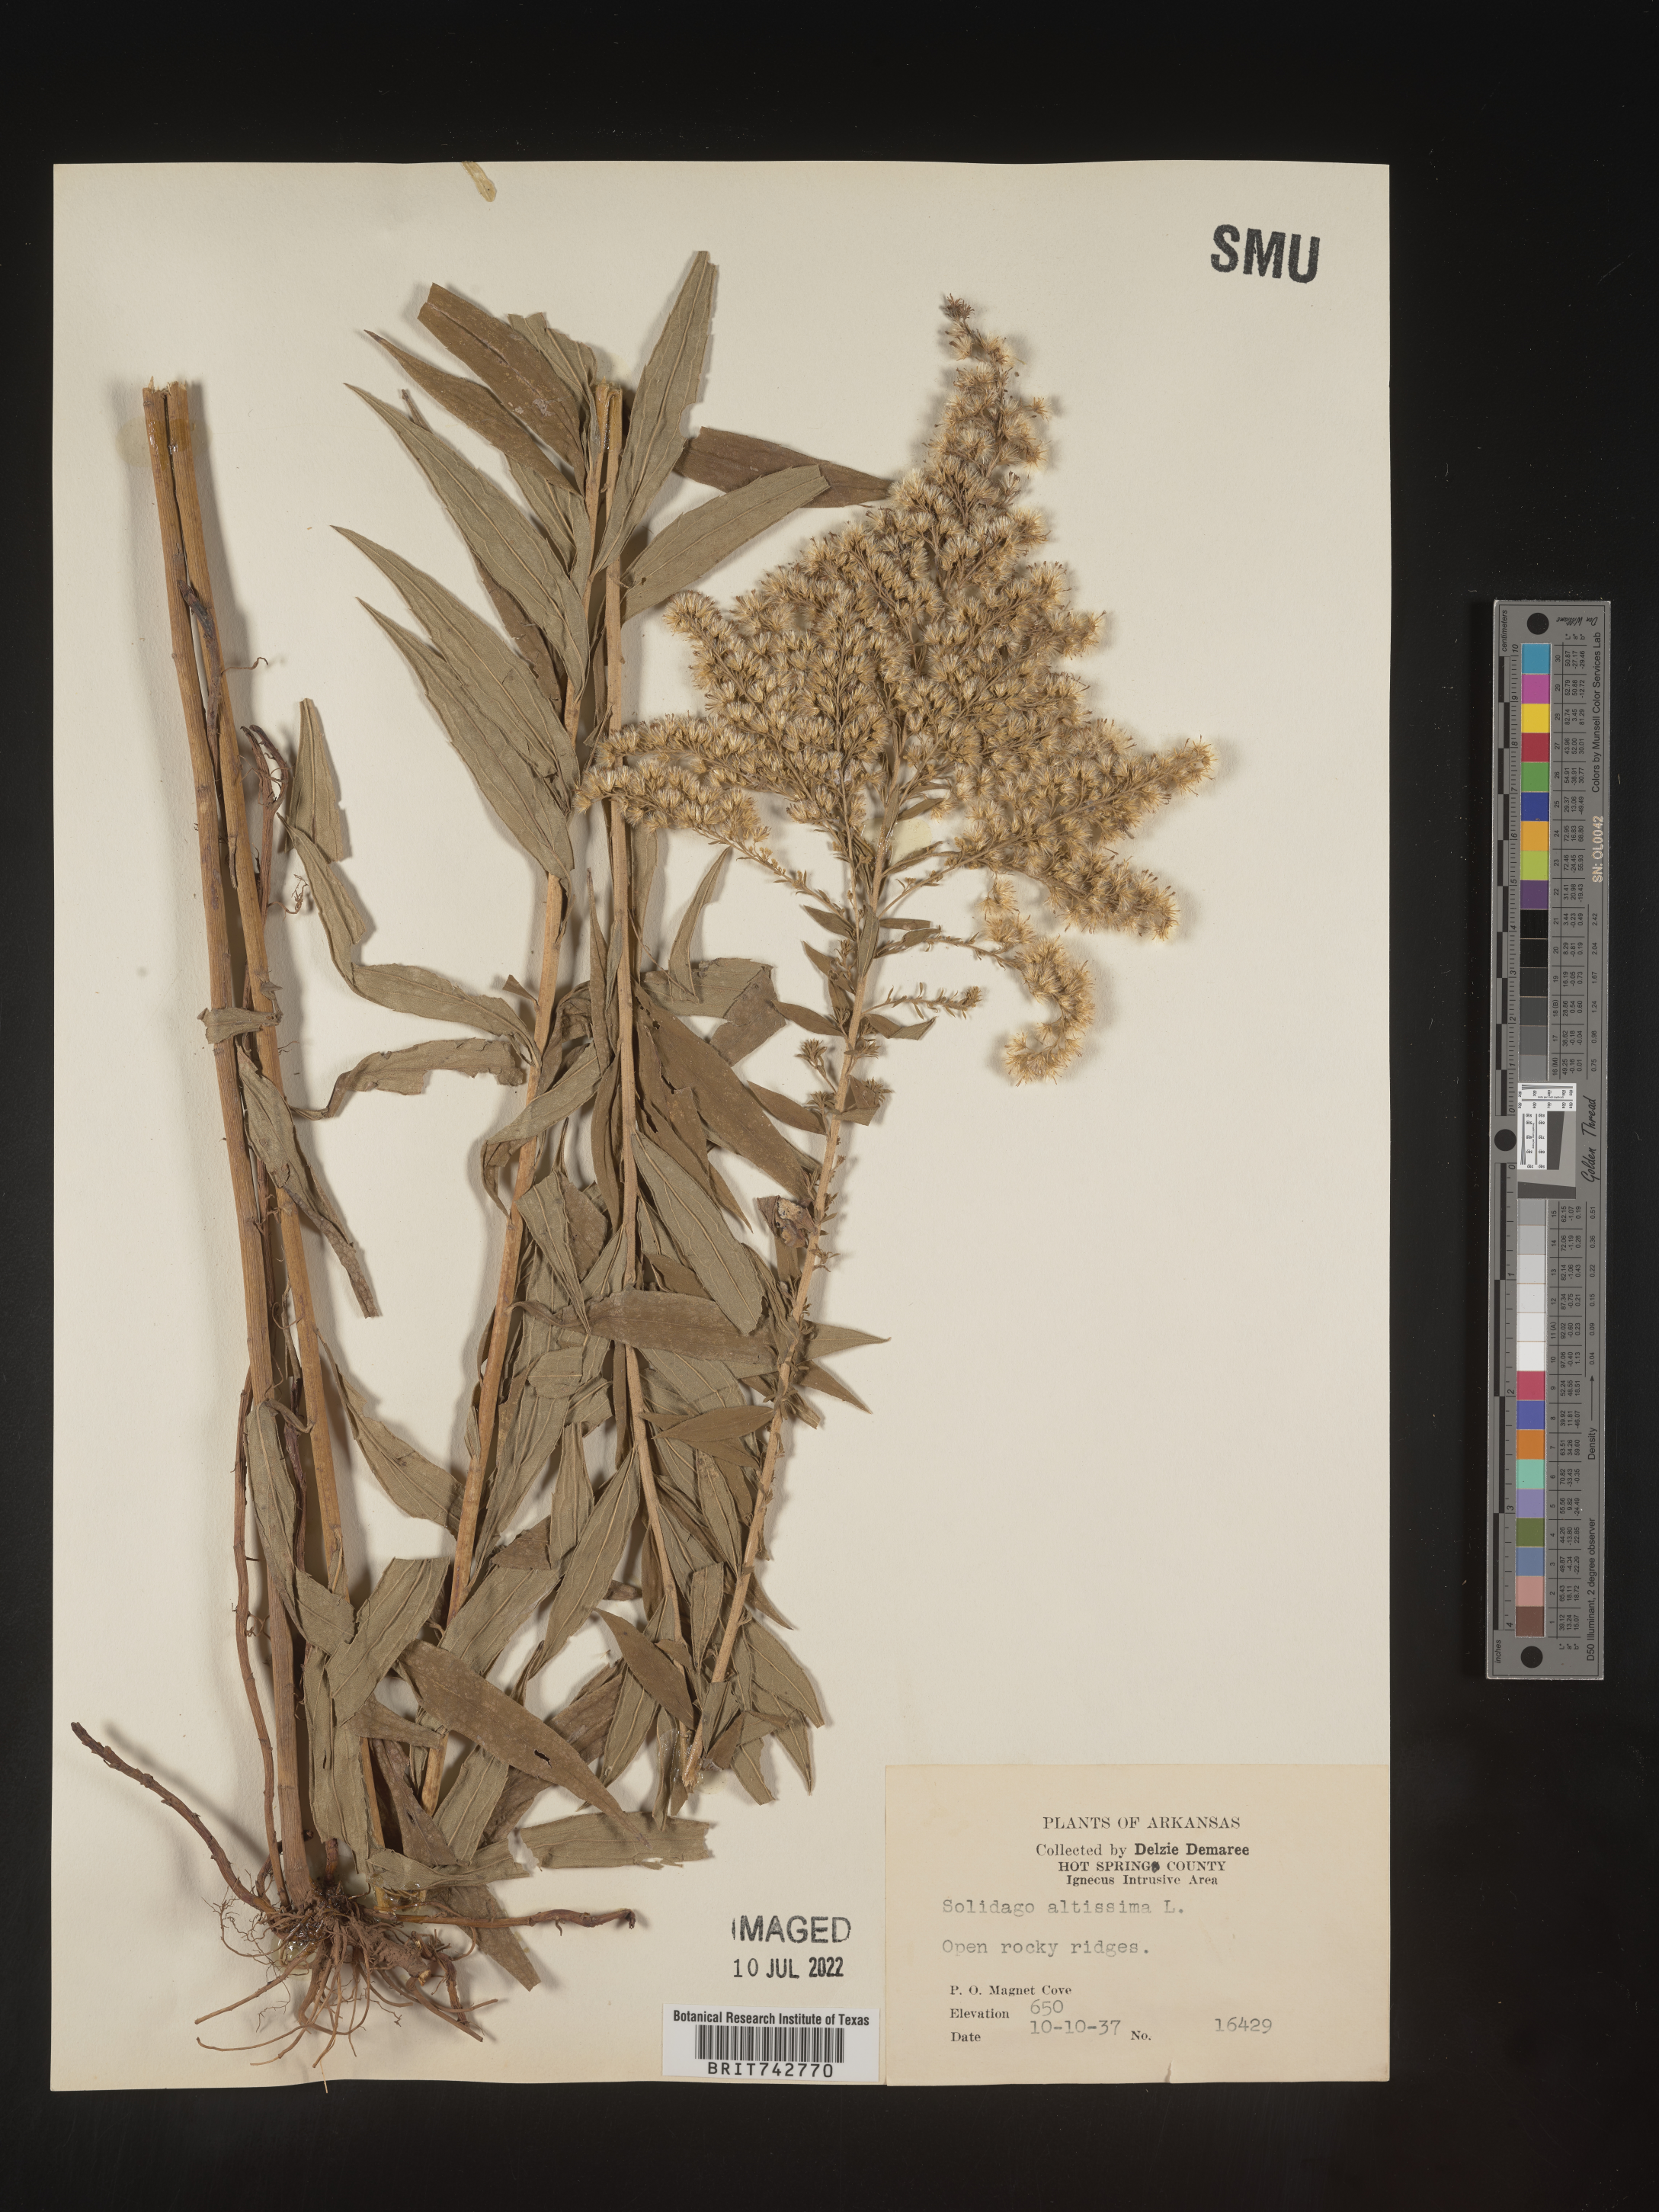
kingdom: Plantae
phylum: Tracheophyta
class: Magnoliopsida
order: Asterales
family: Asteraceae
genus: Solidago
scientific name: Solidago altissima
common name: Late goldenrod
